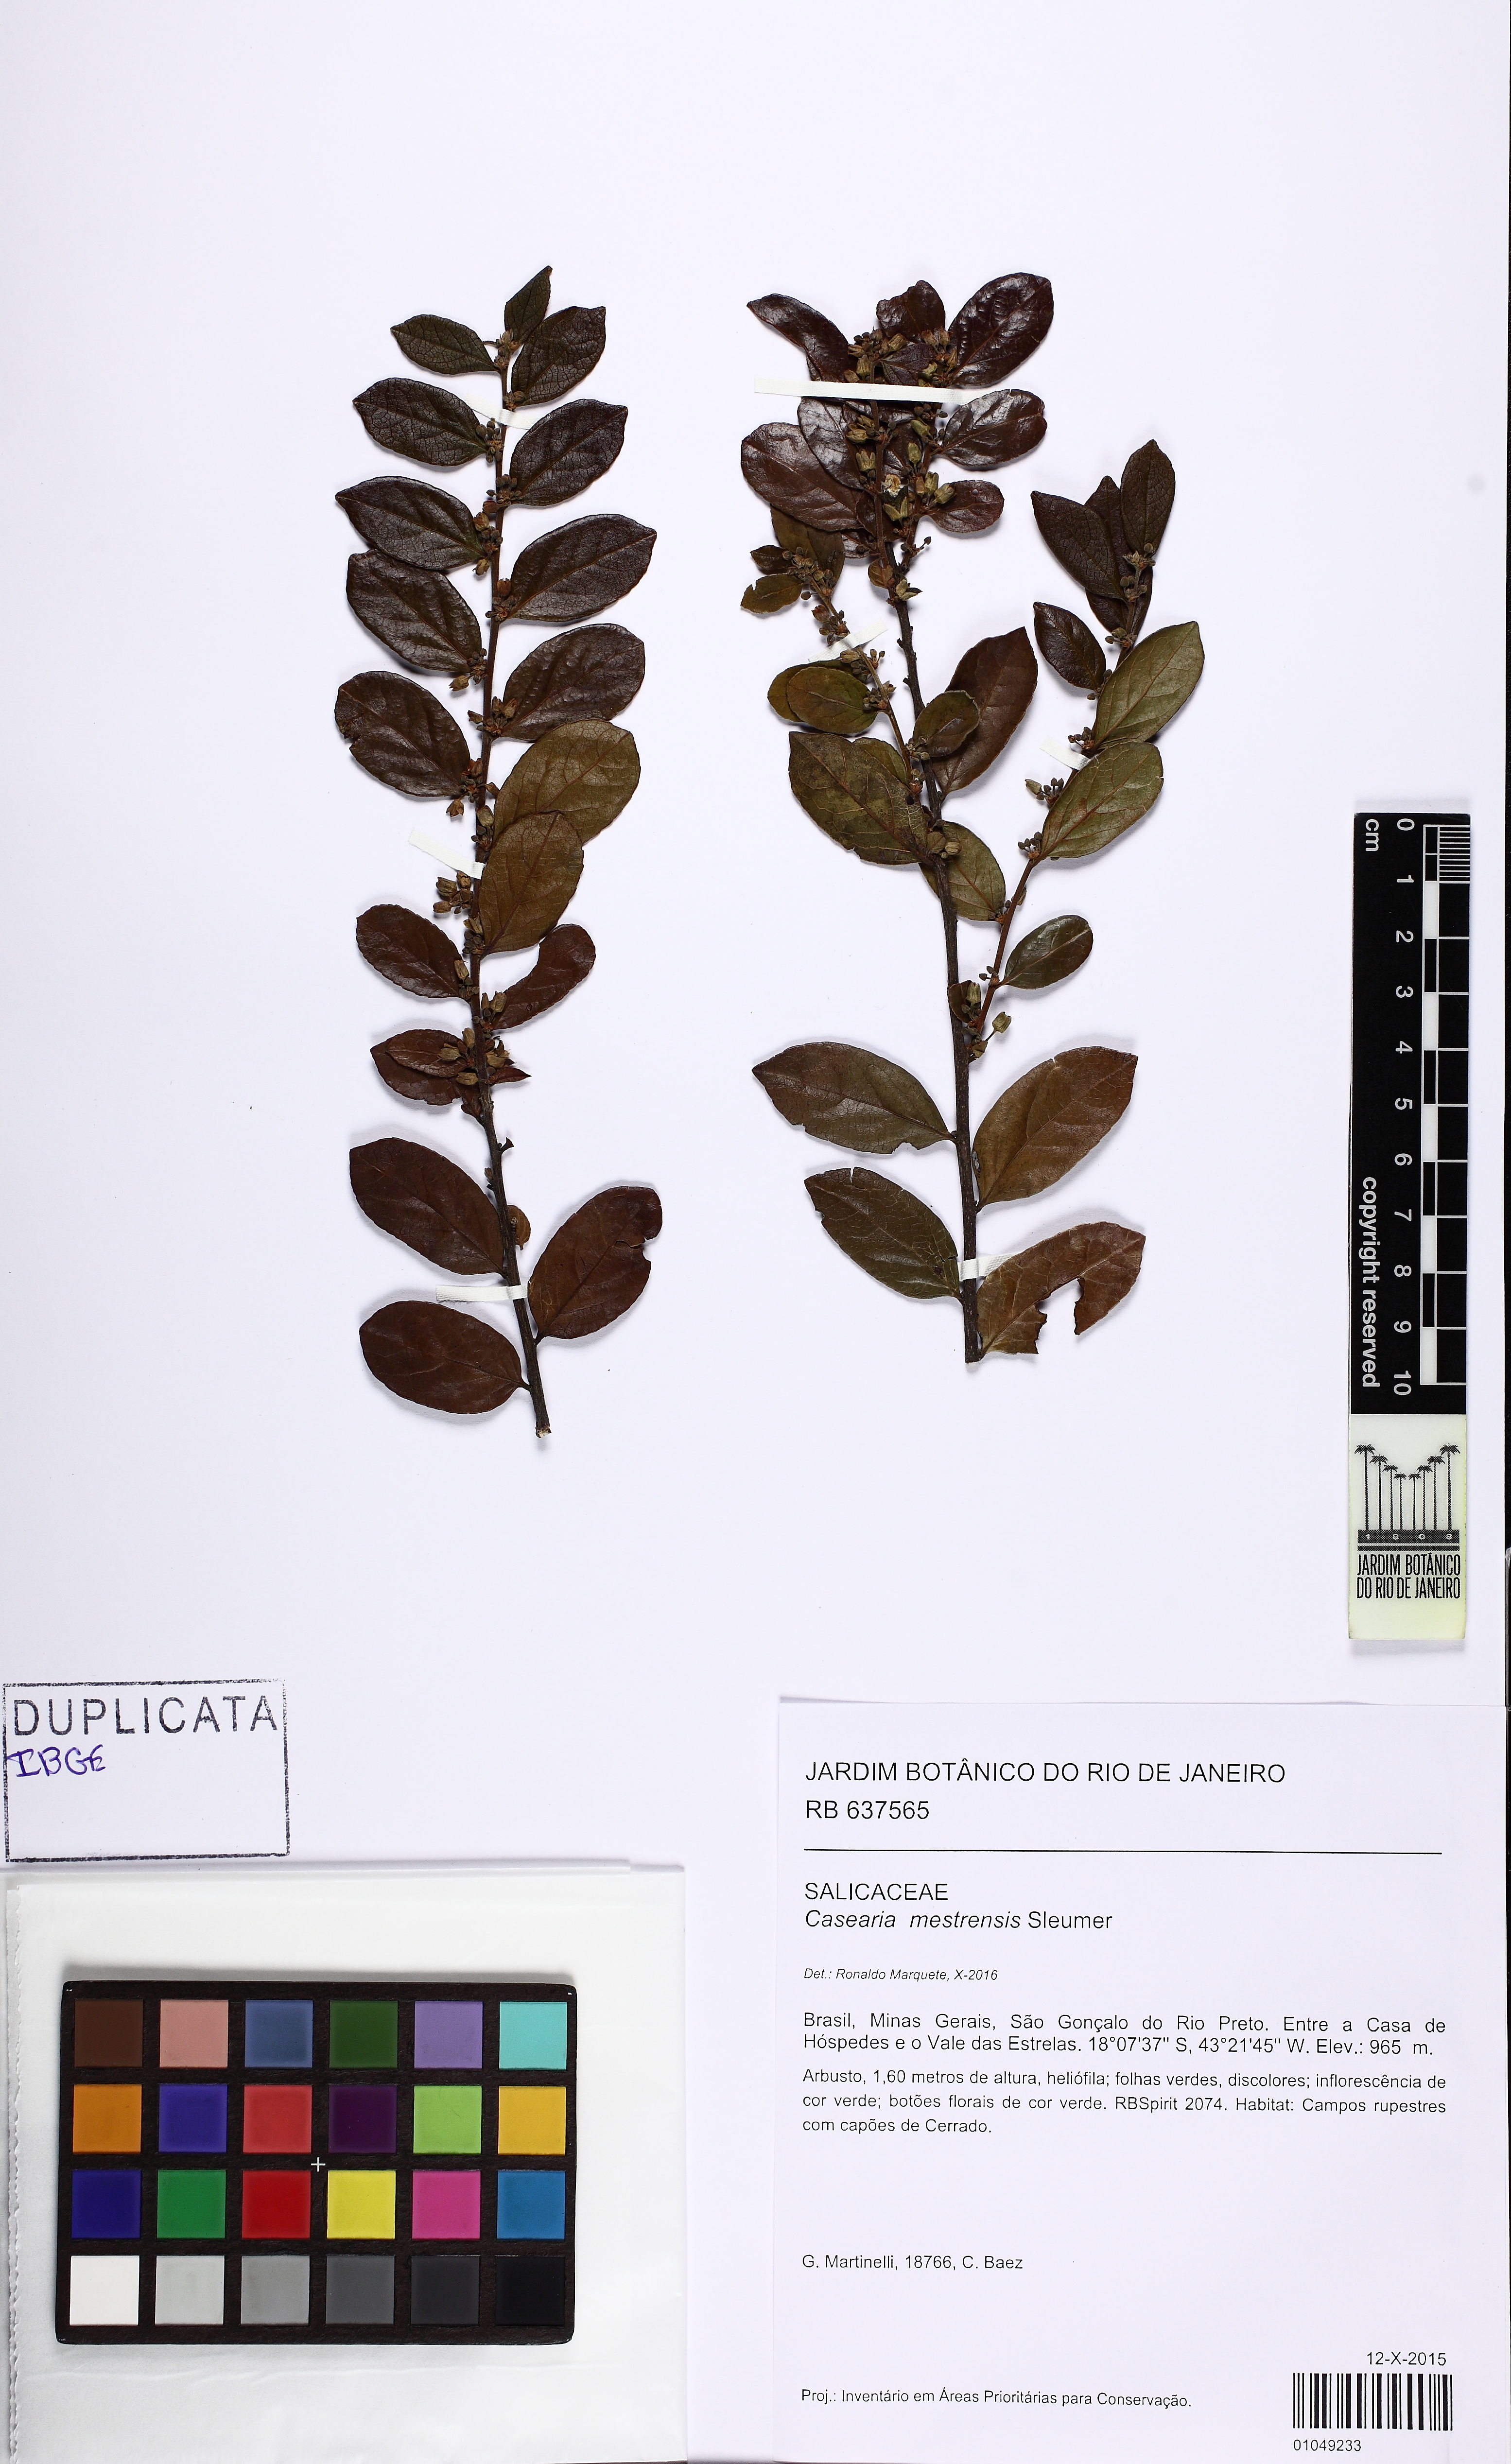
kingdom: Plantae
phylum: Tracheophyta
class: Magnoliopsida
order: Malpighiales
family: Salicaceae
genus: Casearia
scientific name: Casearia mestrensis
